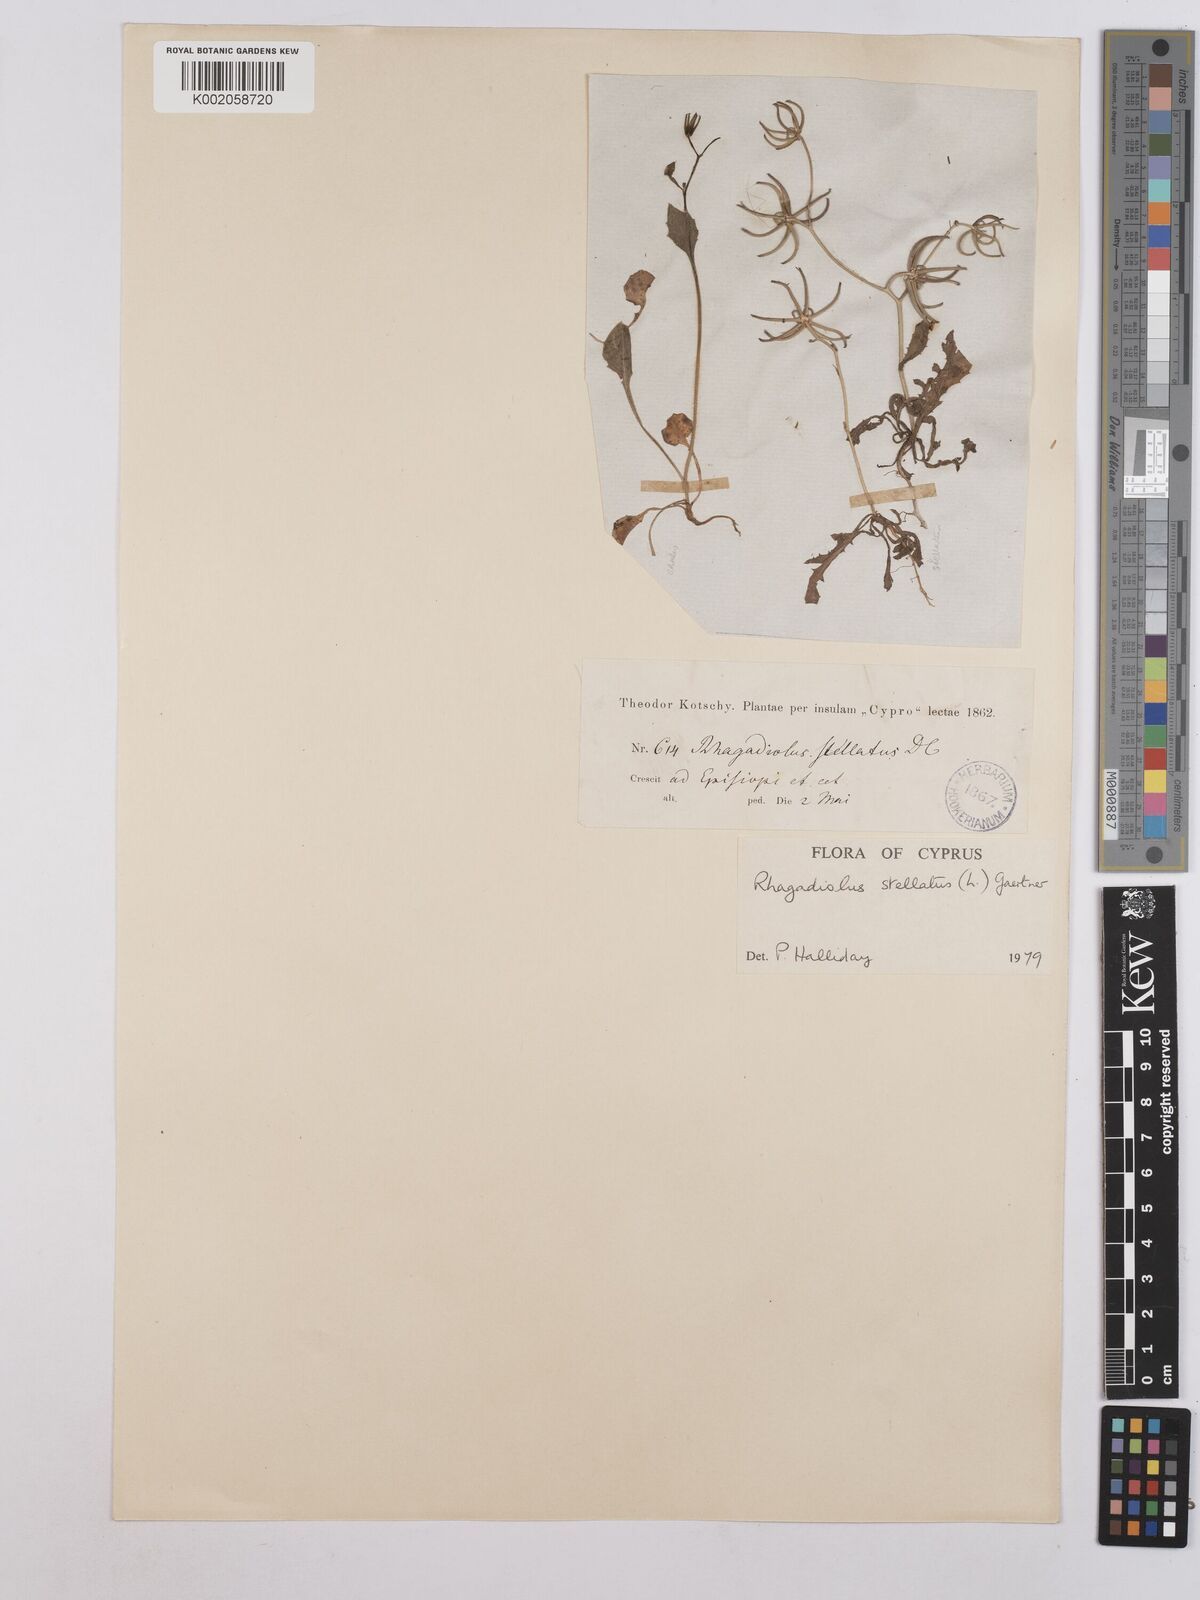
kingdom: Plantae
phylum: Tracheophyta
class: Magnoliopsida
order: Asterales
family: Asteraceae
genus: Rhagadiolus
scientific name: Rhagadiolus stellatus
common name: Star hawkbit
